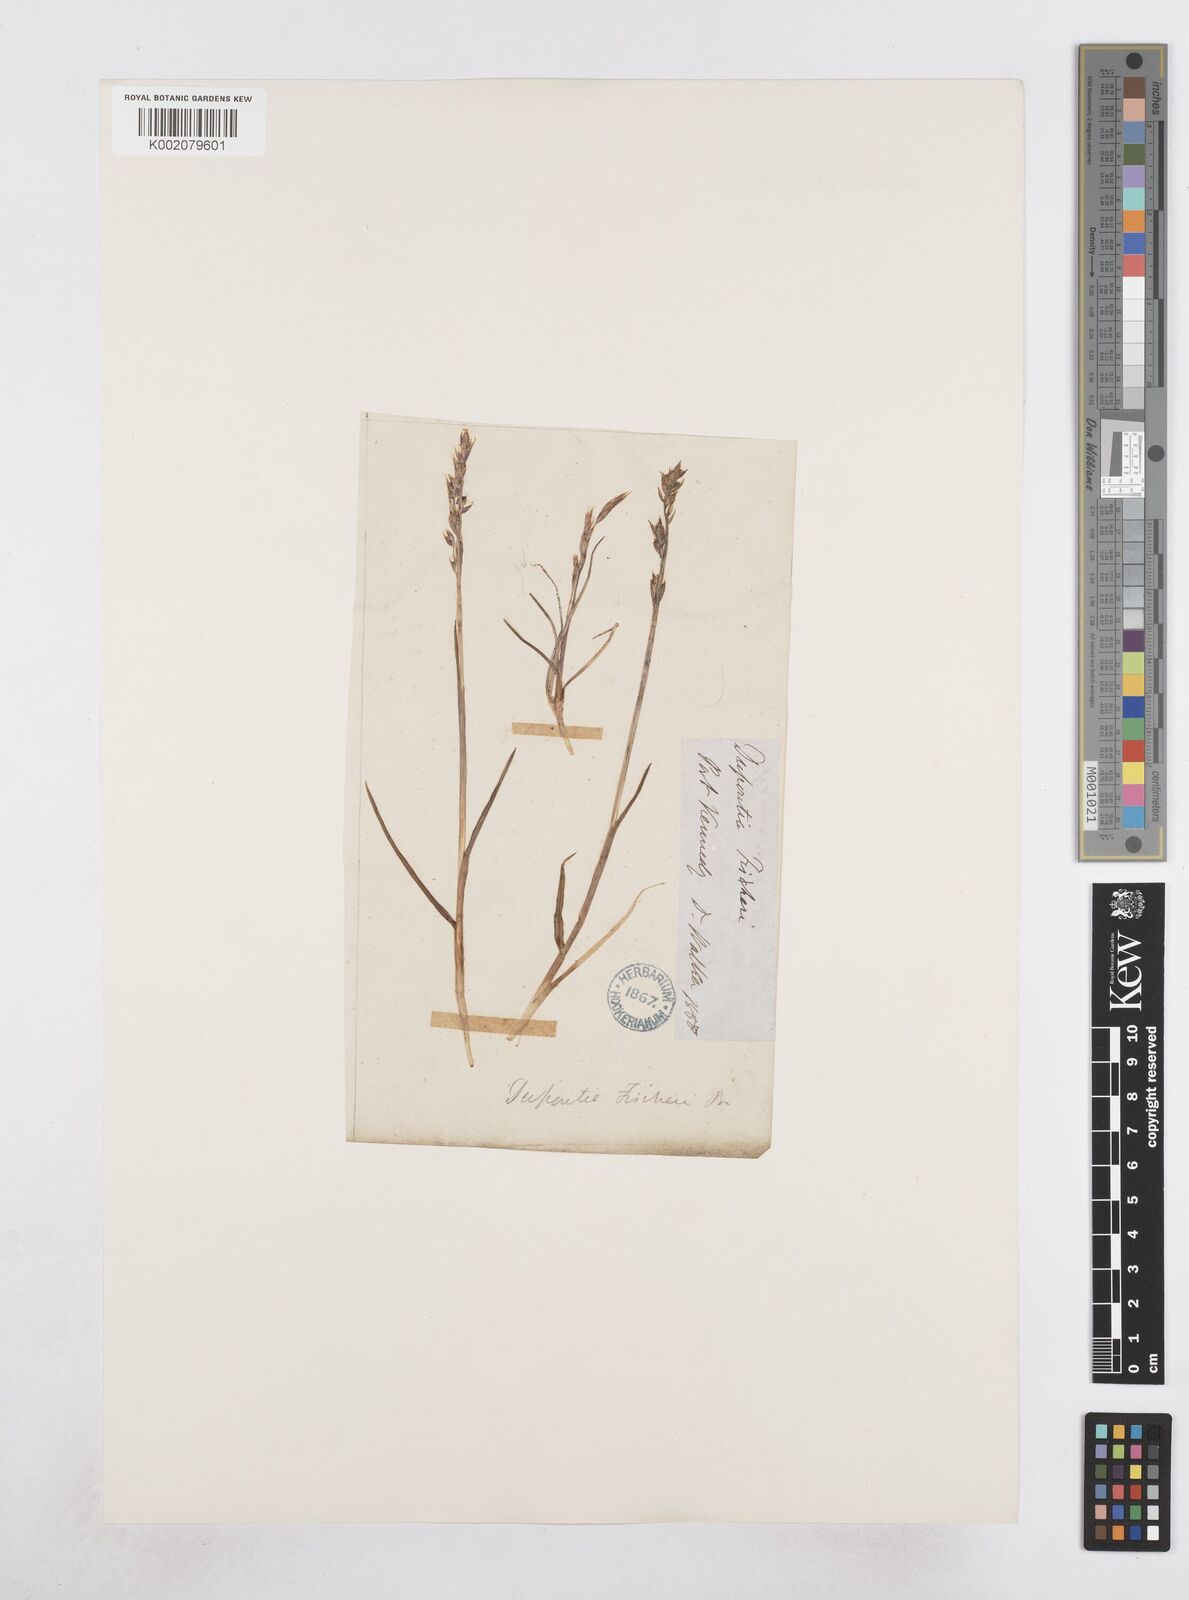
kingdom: Plantae
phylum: Tracheophyta
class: Liliopsida
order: Poales
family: Poaceae
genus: Dupontia
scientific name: Dupontia fisheri
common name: Tundra grass
